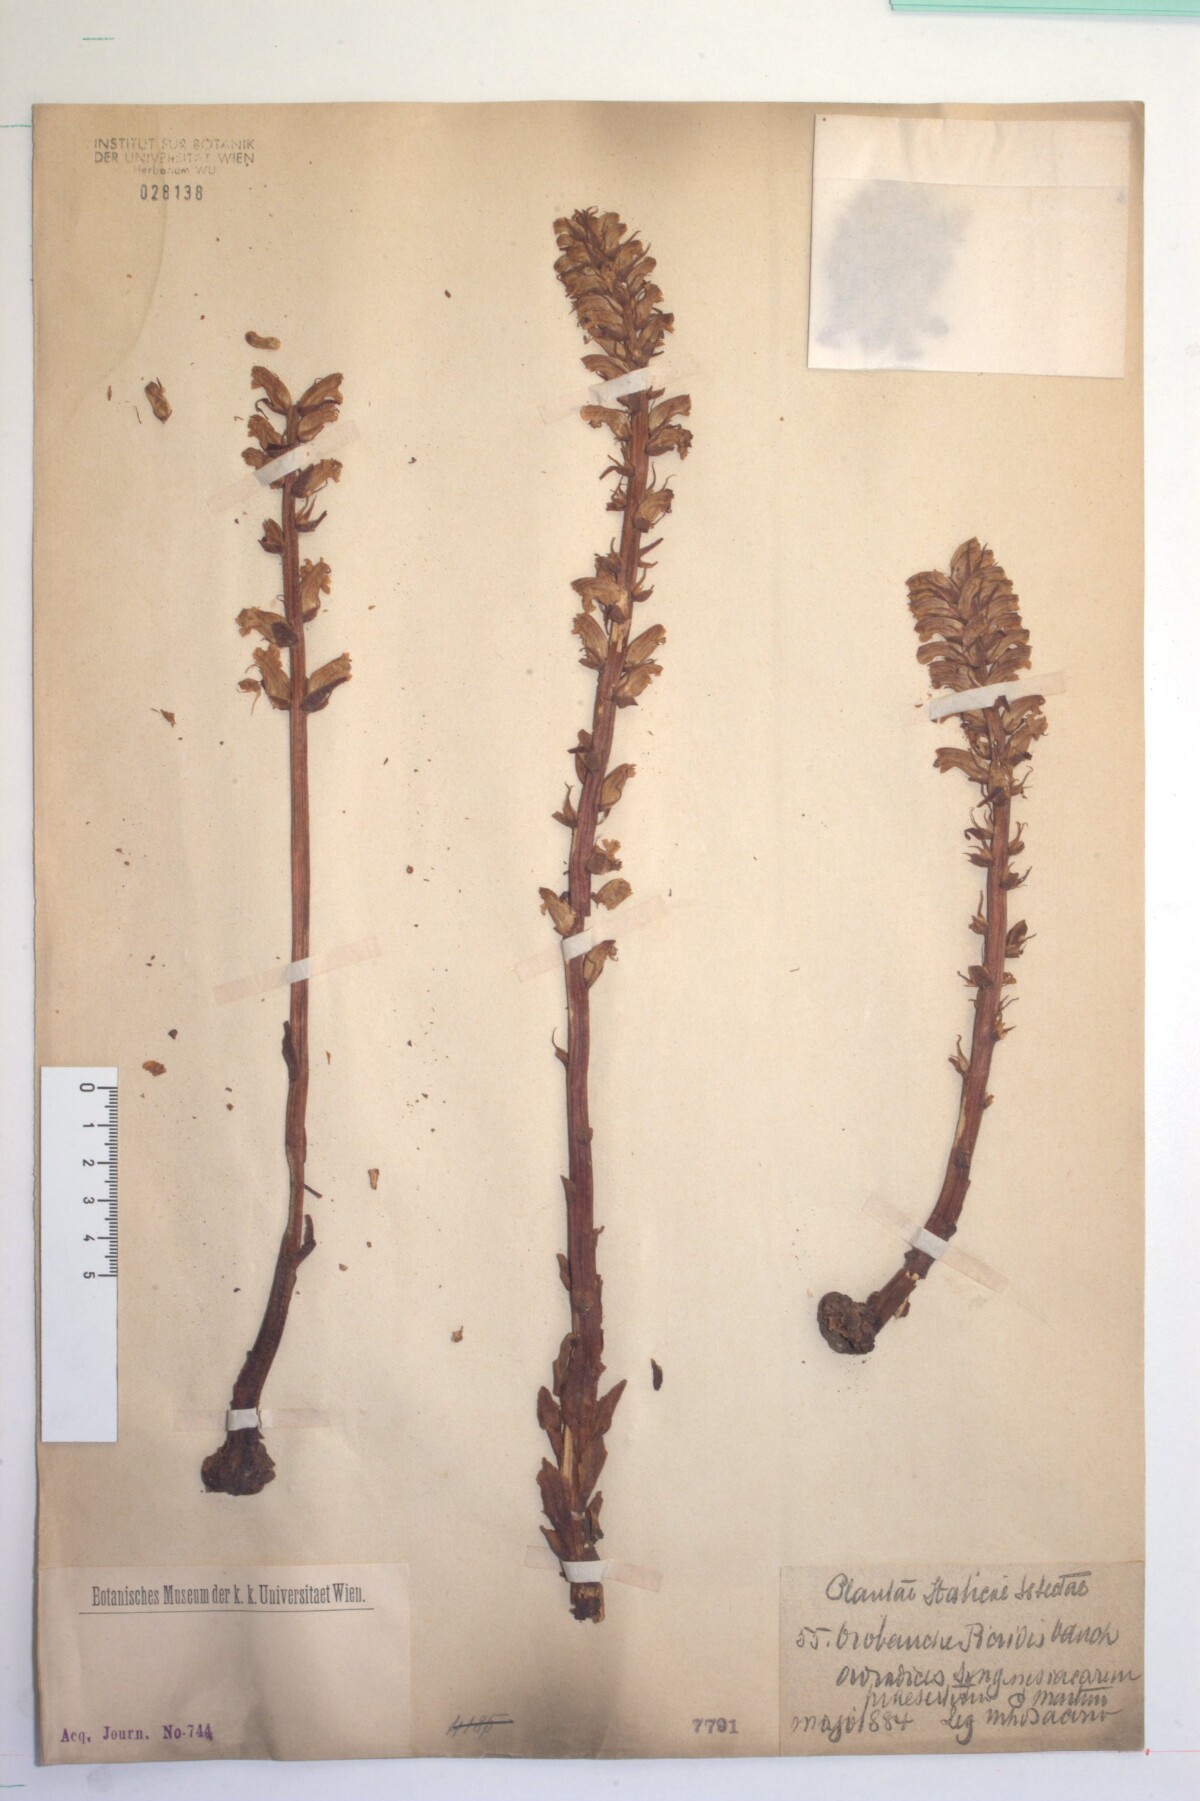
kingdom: Plantae
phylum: Tracheophyta
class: Magnoliopsida
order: Lamiales
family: Orobanchaceae
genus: Orobanche
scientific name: Orobanche picridis
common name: Oxtongue broomrape
